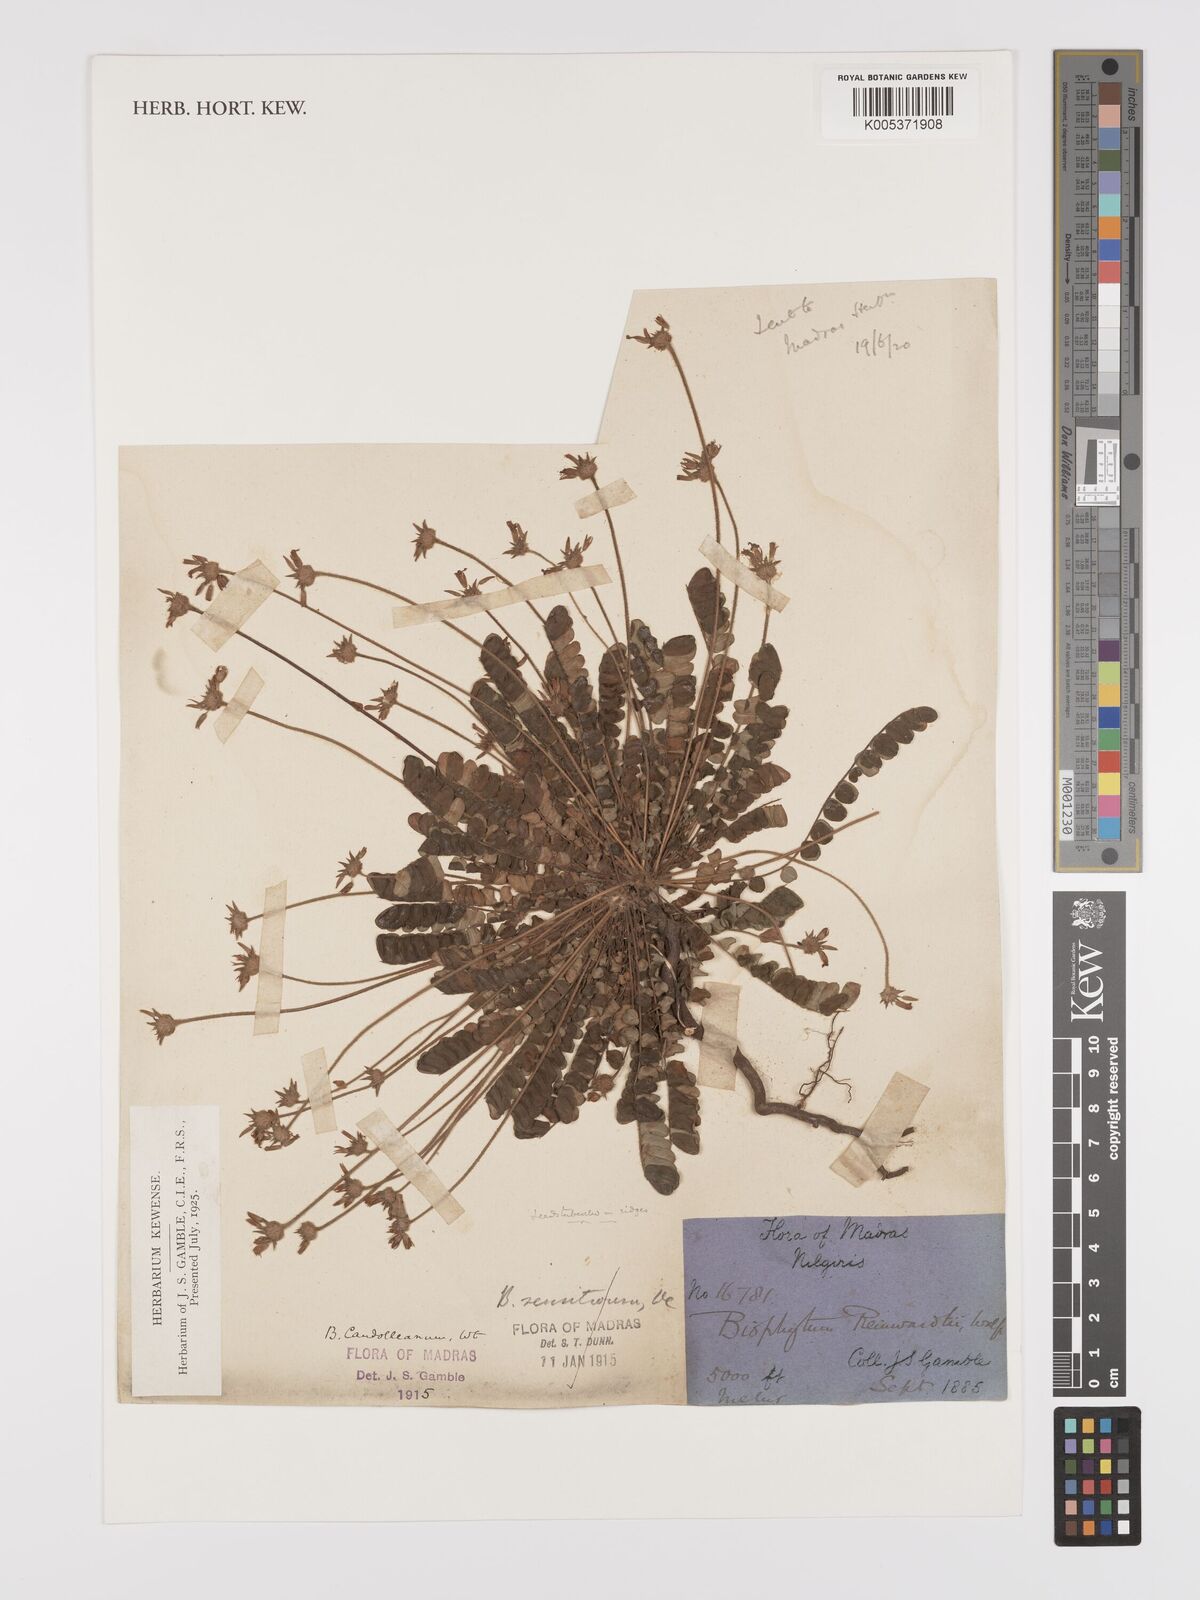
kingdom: Plantae
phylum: Tracheophyta
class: Magnoliopsida
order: Oxalidales
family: Oxalidaceae
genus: Biophytum
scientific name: Biophytum sensitivum
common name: Lifeplant
